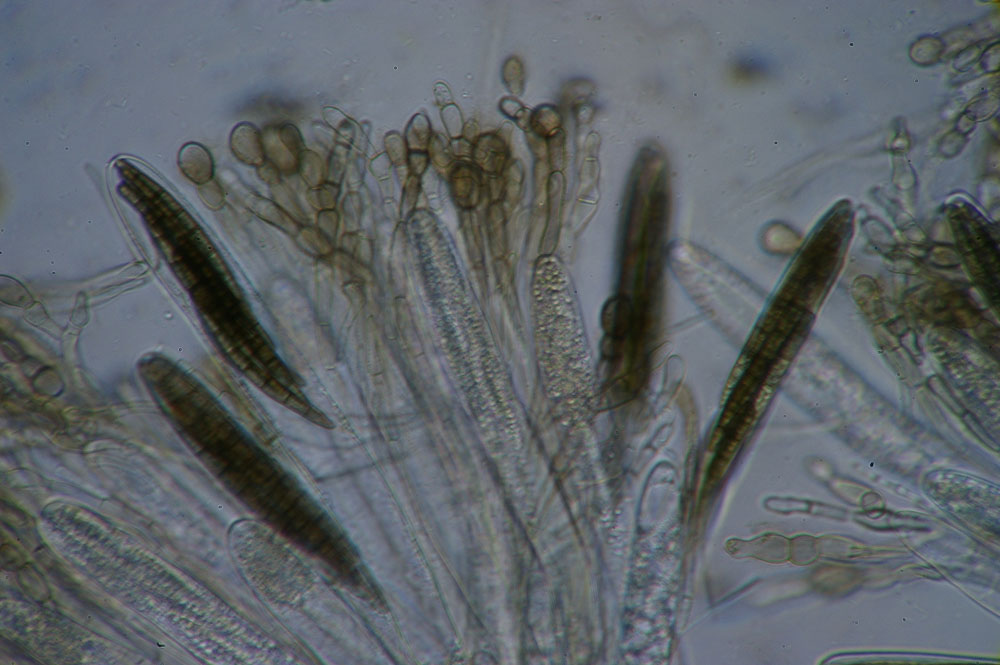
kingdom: Fungi
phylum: Ascomycota
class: Geoglossomycetes
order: Geoglossales
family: Geoglossaceae
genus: Geoglossum
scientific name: Geoglossum cookeianum
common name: bred jordtunge
